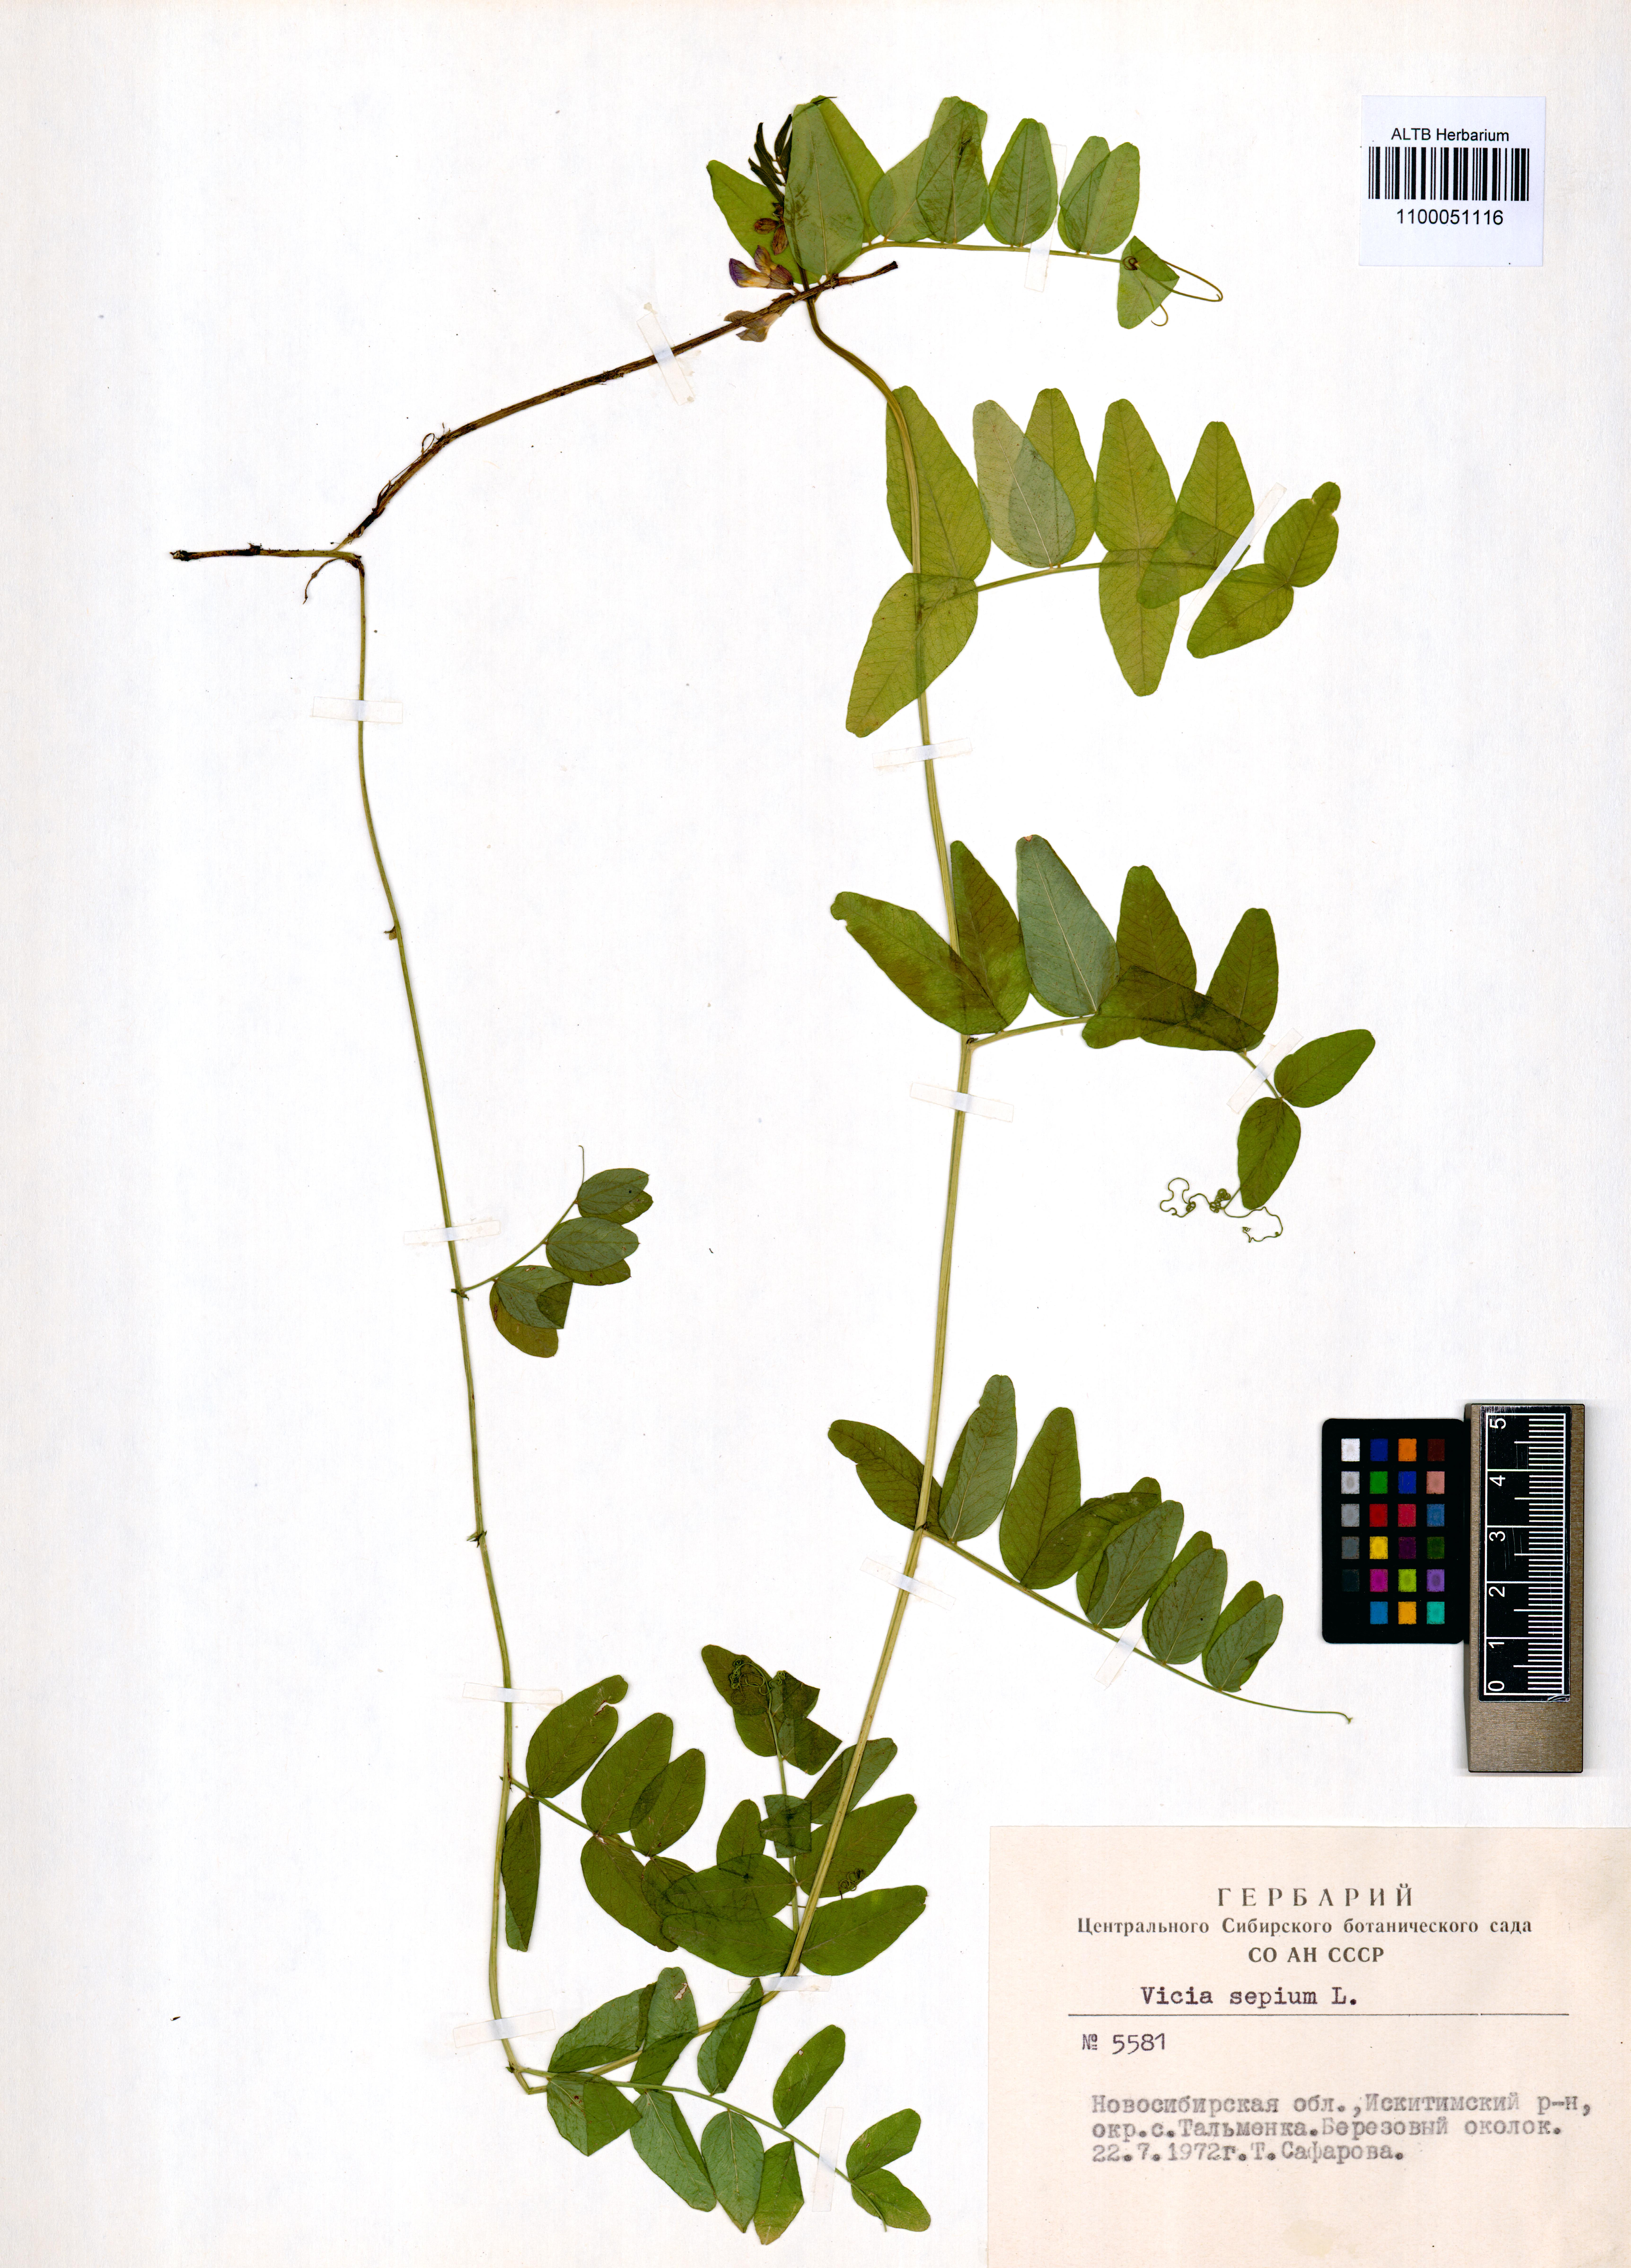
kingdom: Plantae
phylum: Tracheophyta
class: Magnoliopsida
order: Fabales
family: Fabaceae
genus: Vicia
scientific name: Vicia sepium
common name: Bush vetch
